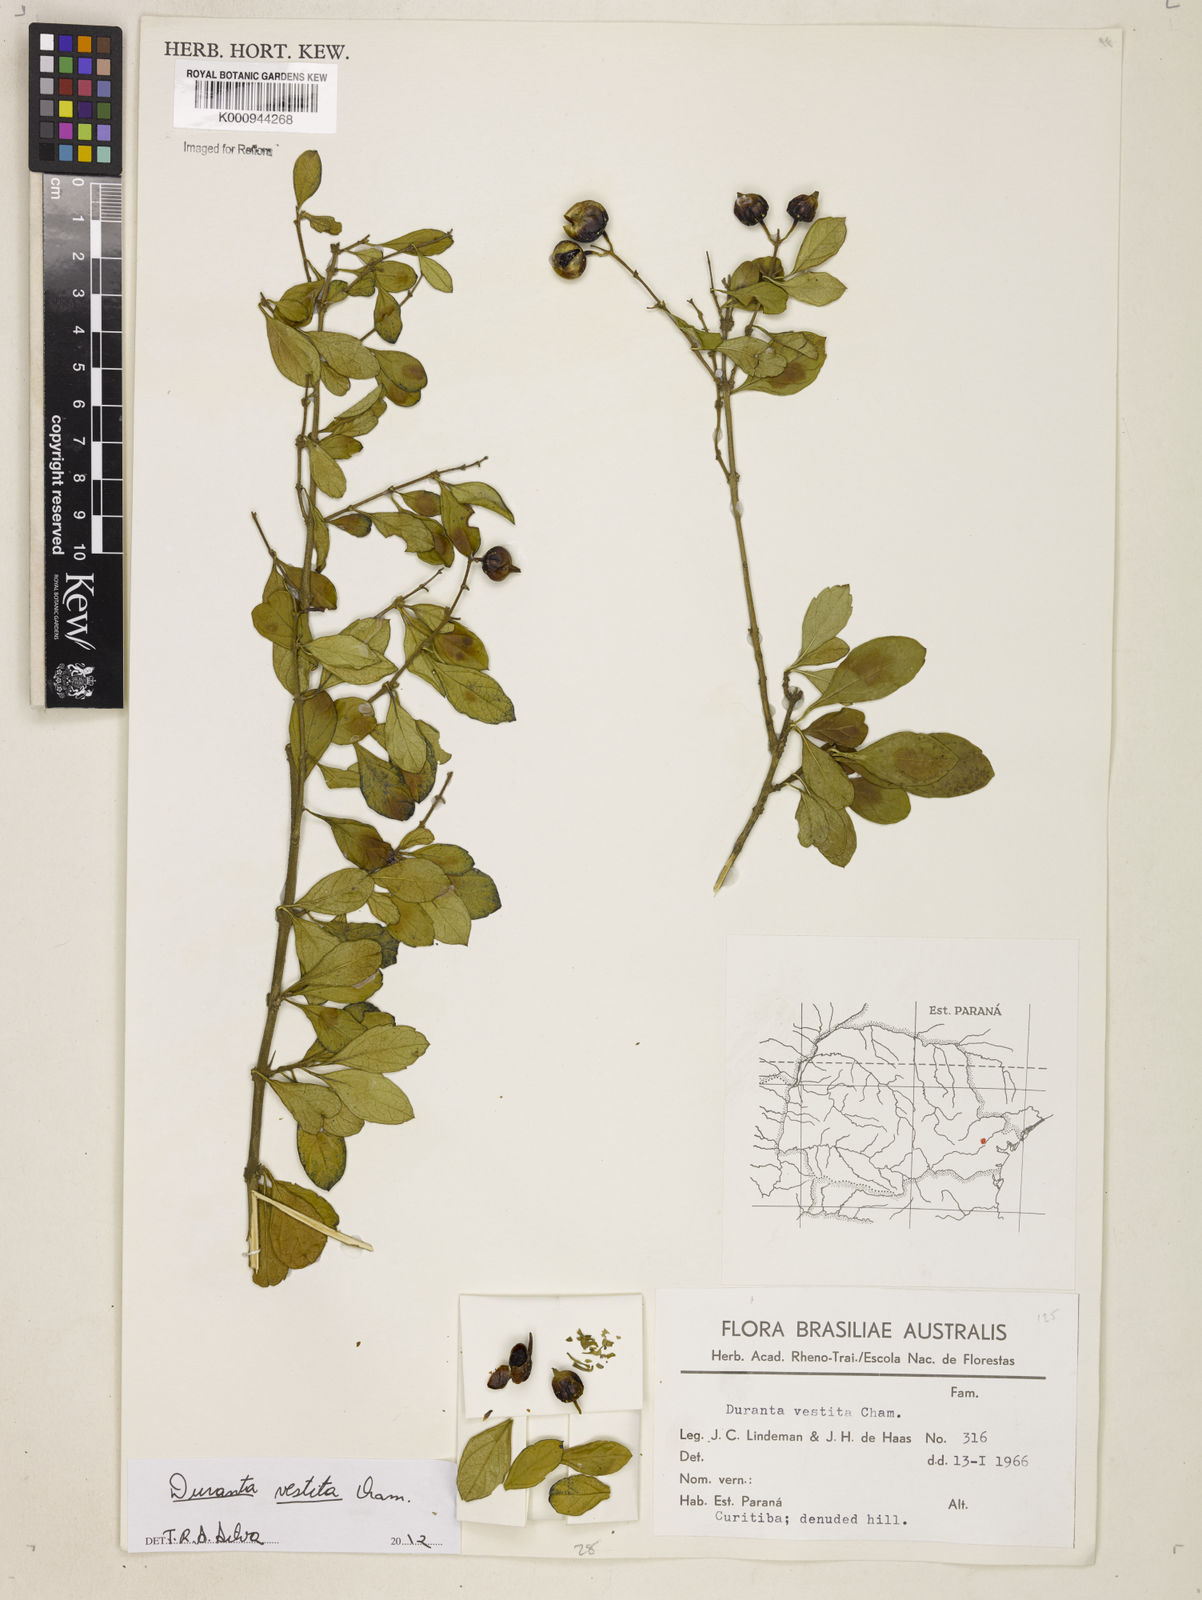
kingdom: Plantae
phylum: Tracheophyta
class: Magnoliopsida
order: Lamiales
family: Verbenaceae
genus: Citharexylum
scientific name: Citharexylum
